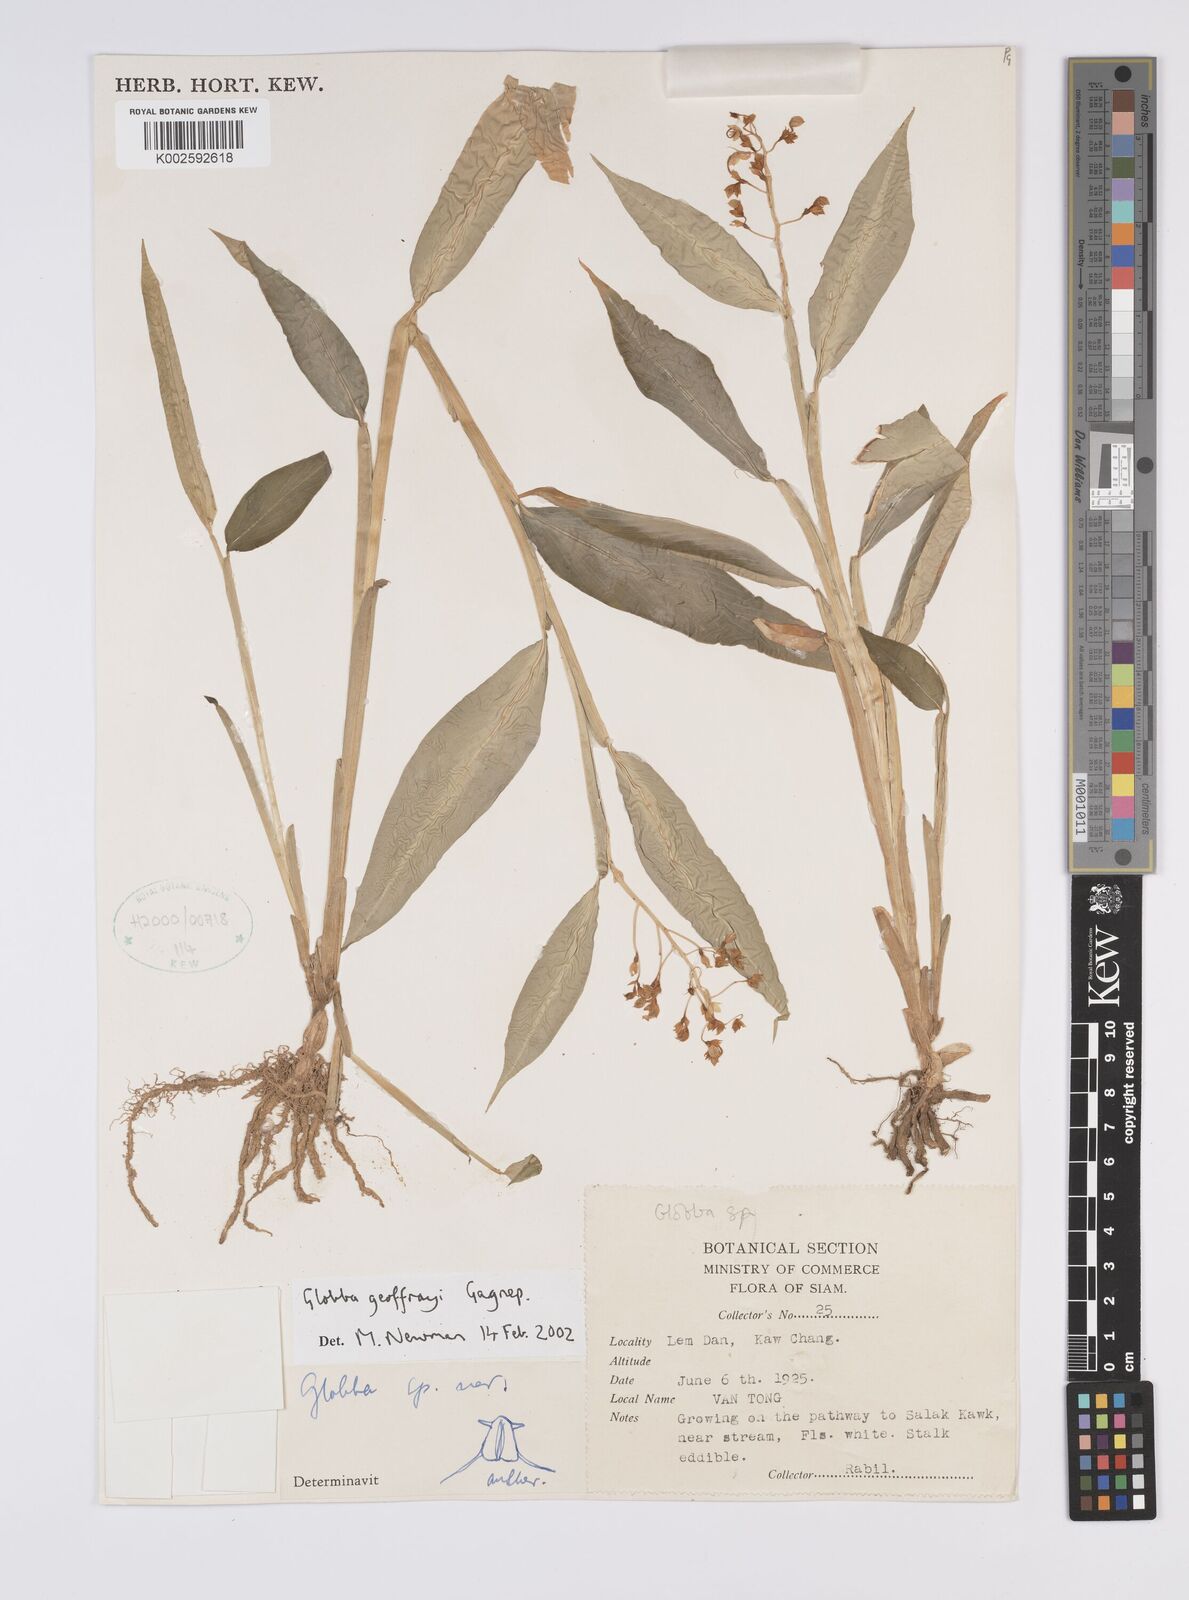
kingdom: Plantae
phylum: Tracheophyta
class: Liliopsida
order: Zingiberales
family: Zingiberaceae
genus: Globba
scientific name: Globba geoffrayi
